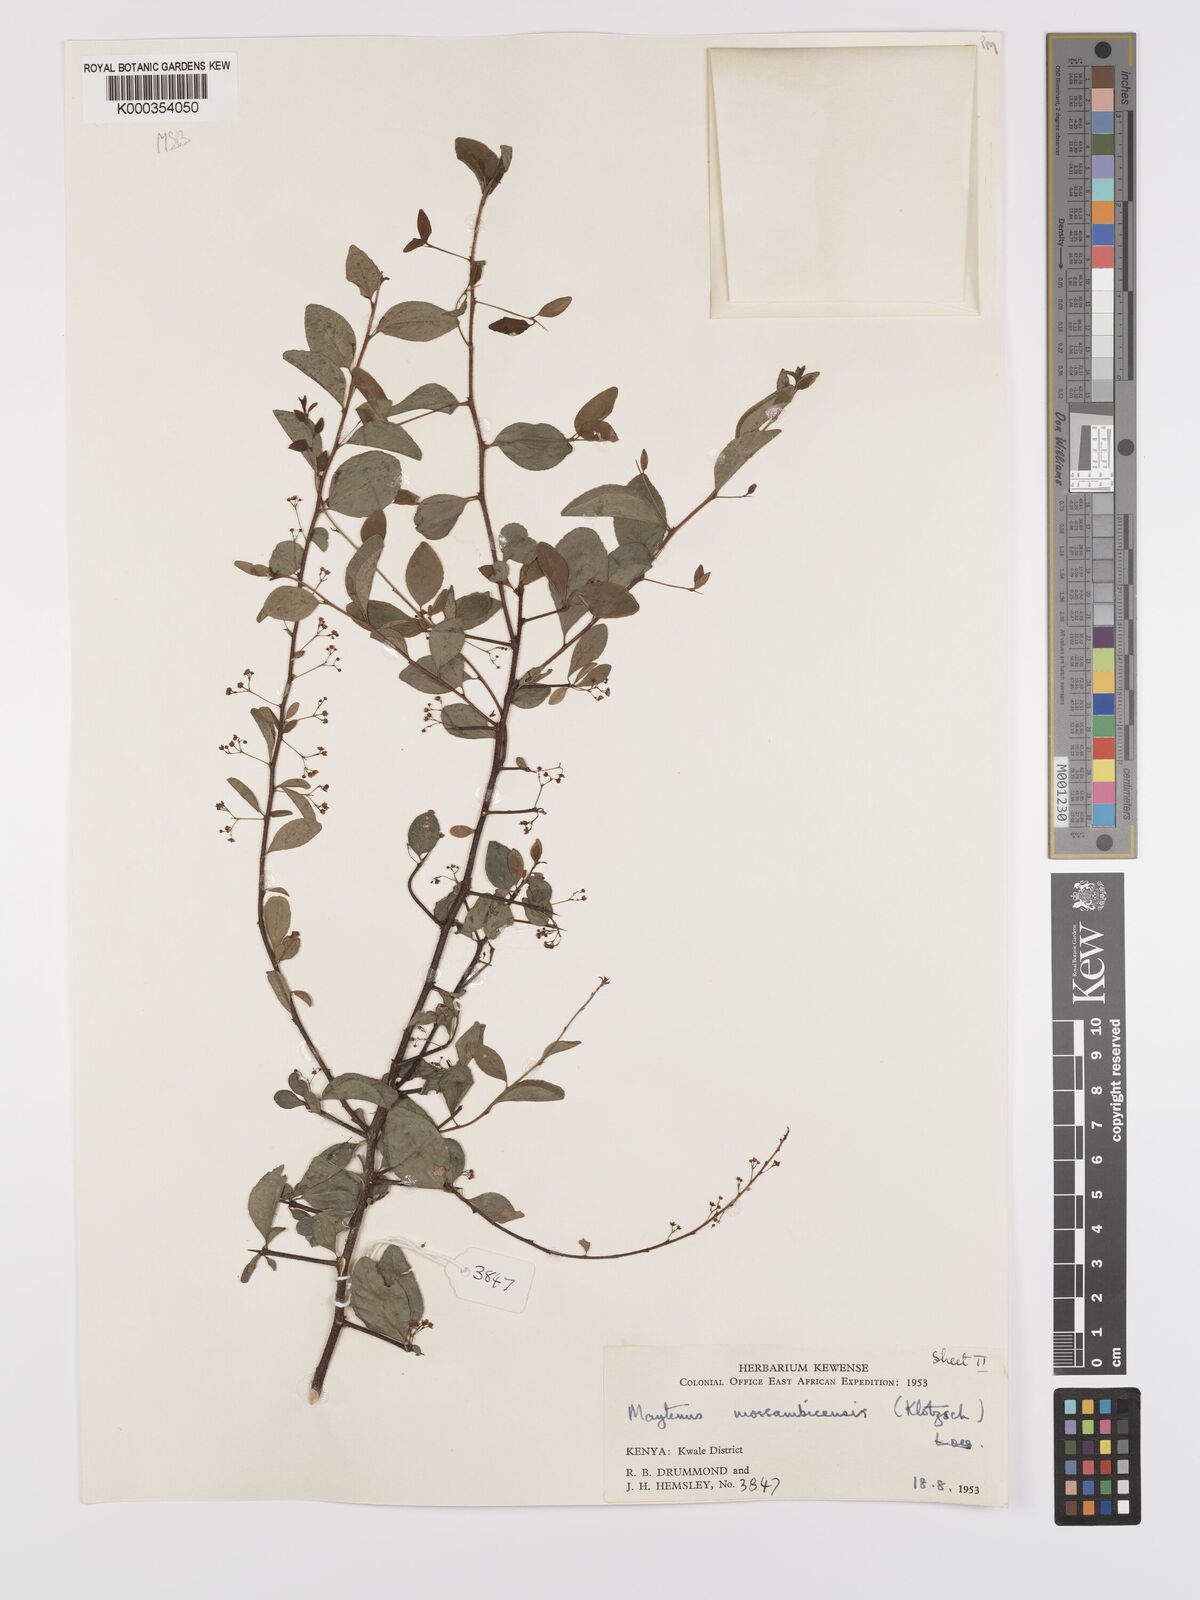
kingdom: Plantae
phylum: Tracheophyta
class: Magnoliopsida
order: Celastrales
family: Celastraceae
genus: Gymnosporia
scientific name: Gymnosporia mossambicensis
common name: Black forest spike-thorn
